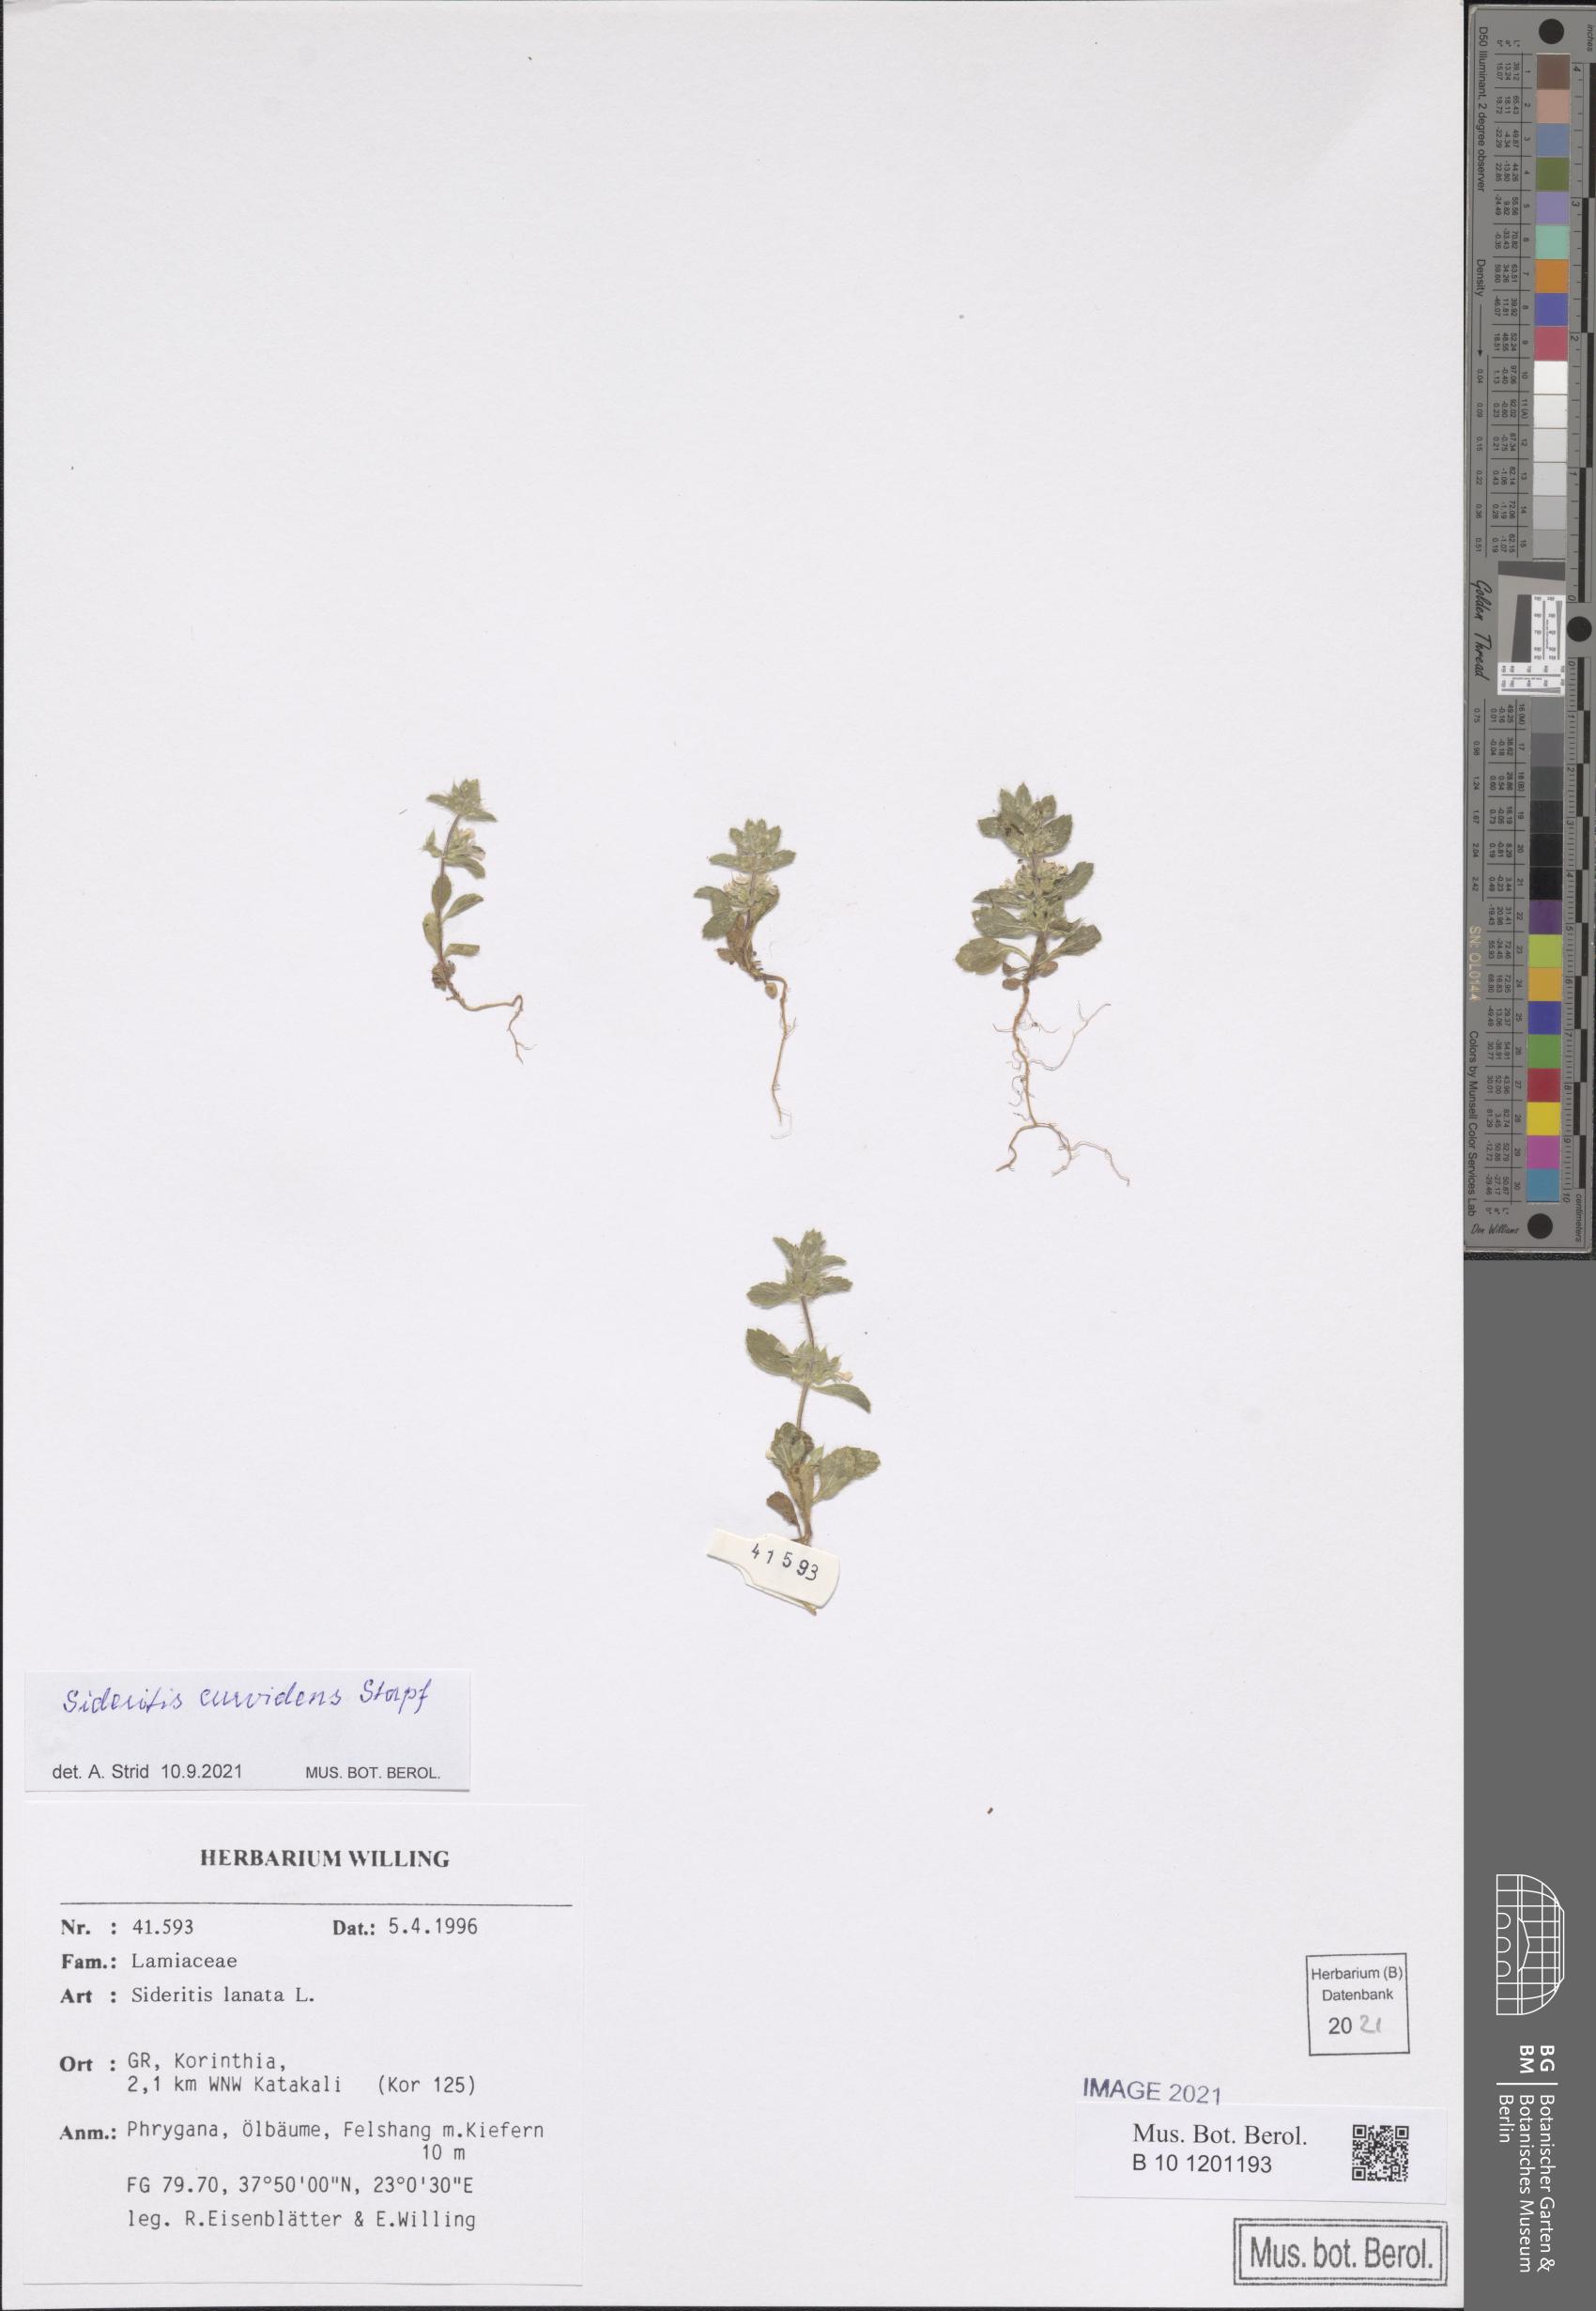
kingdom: Plantae
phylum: Tracheophyta
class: Magnoliopsida
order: Lamiales
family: Lamiaceae
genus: Sideritis
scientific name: Sideritis romana
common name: Simplebeak ironwort
